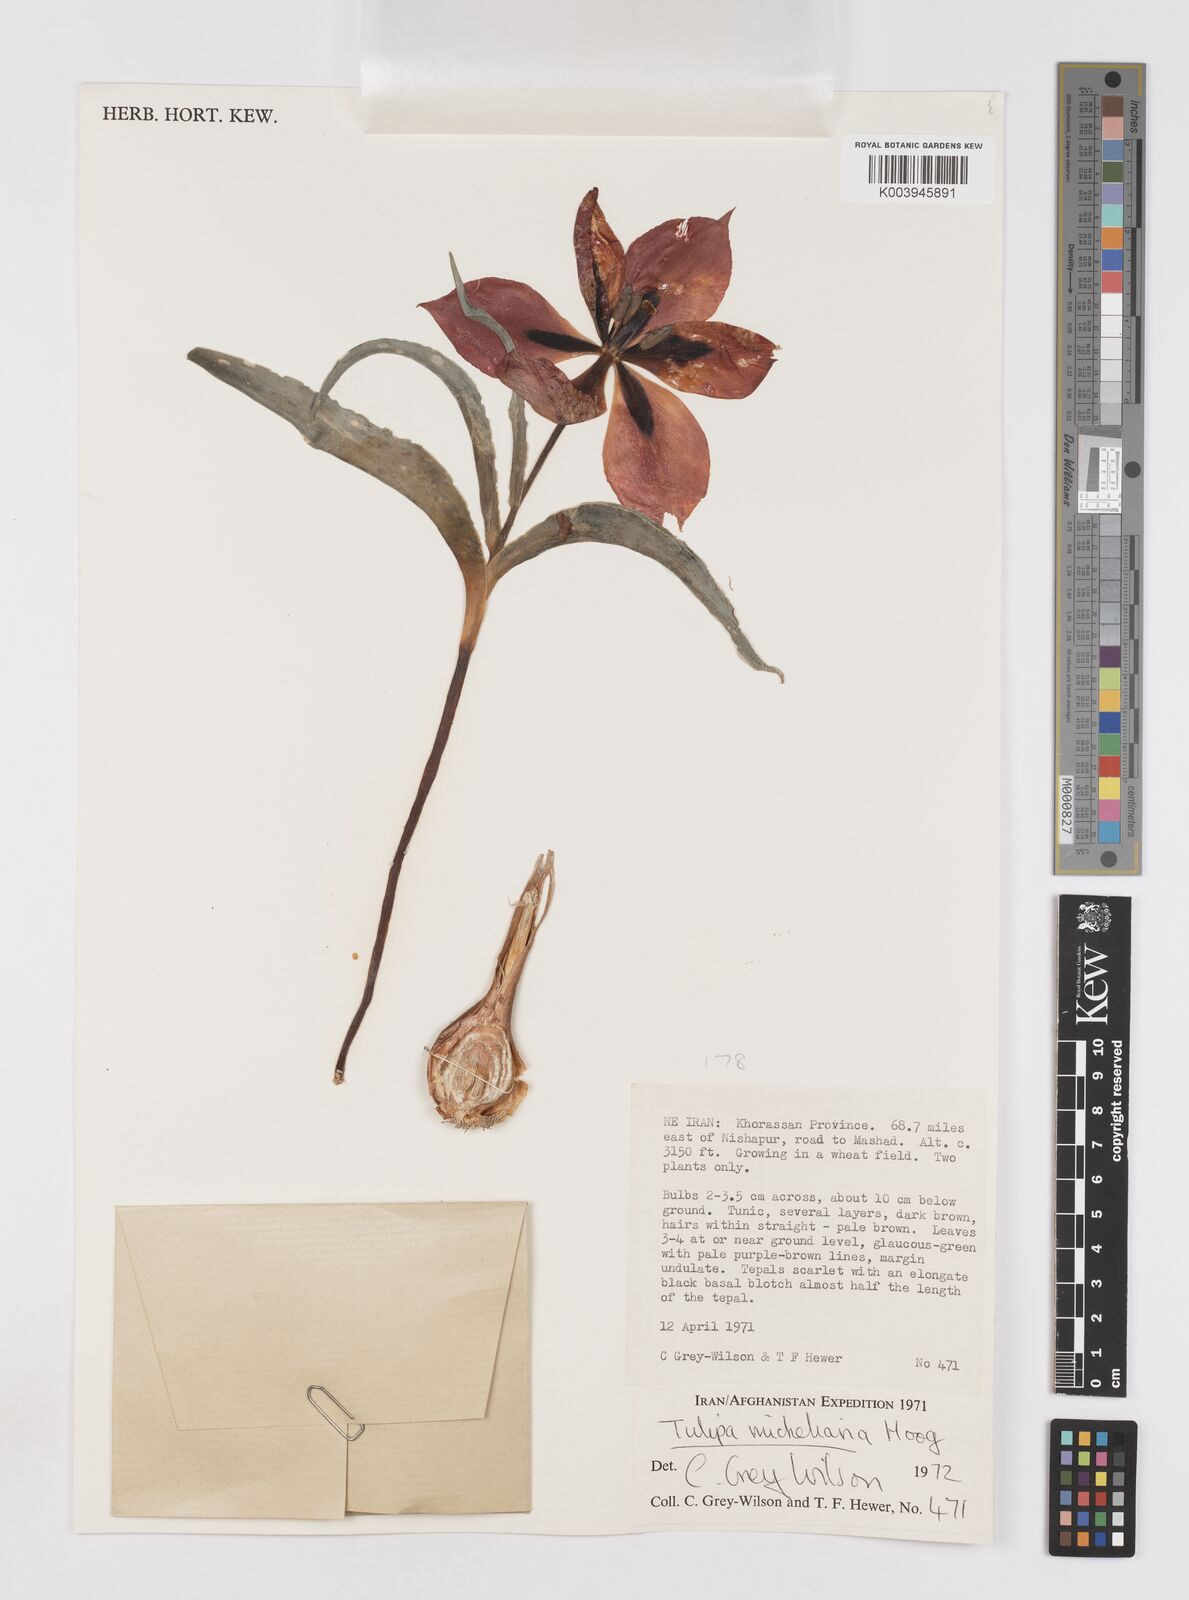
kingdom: Plantae
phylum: Tracheophyta
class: Liliopsida
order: Liliales
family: Liliaceae
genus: Tulipa
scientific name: Tulipa undulatifolia
